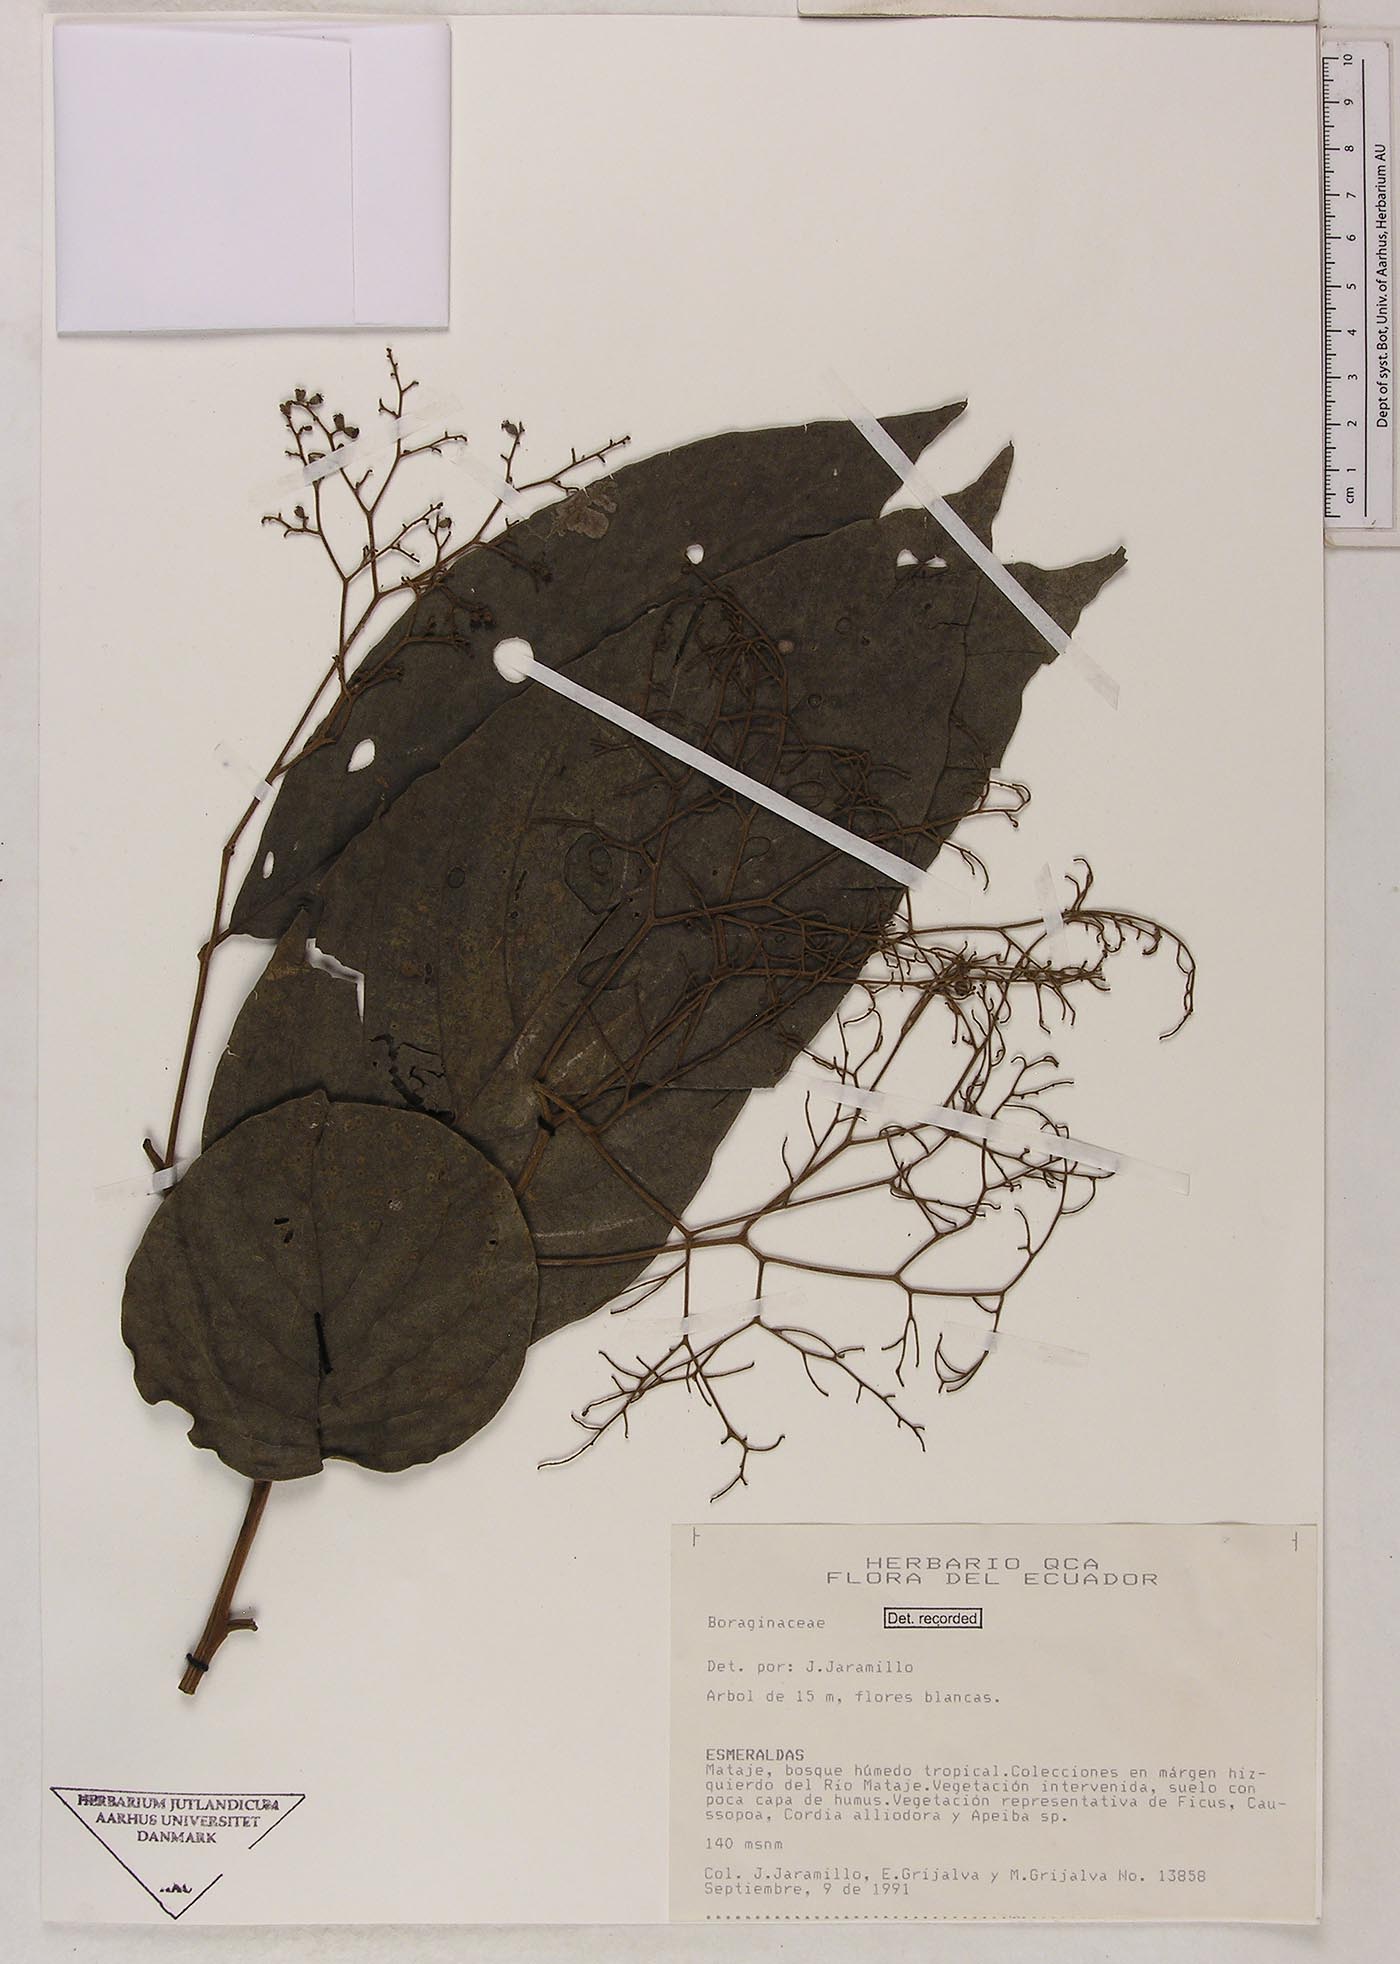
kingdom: Plantae
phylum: Tracheophyta
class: Magnoliopsida
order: Boraginales
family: Cordiaceae
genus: Cordia
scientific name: Cordia
